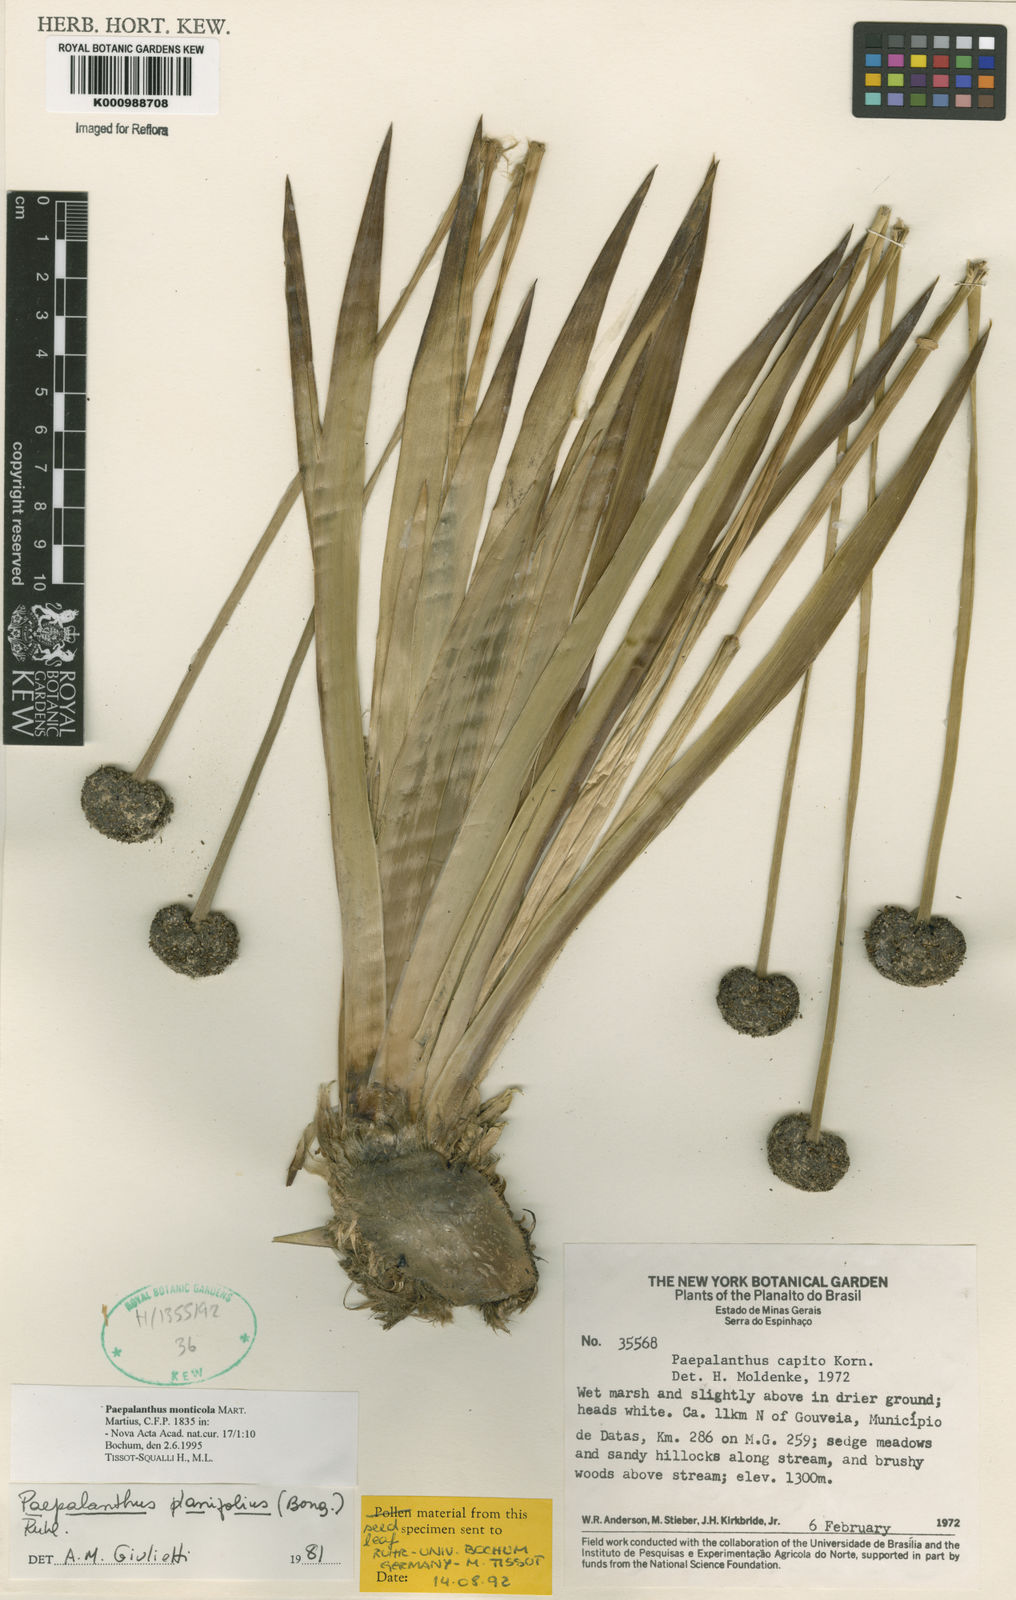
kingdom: Plantae
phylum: Tracheophyta
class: Liliopsida
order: Poales
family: Eriocaulaceae
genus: Paepalanthus
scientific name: Paepalanthus planifolius
